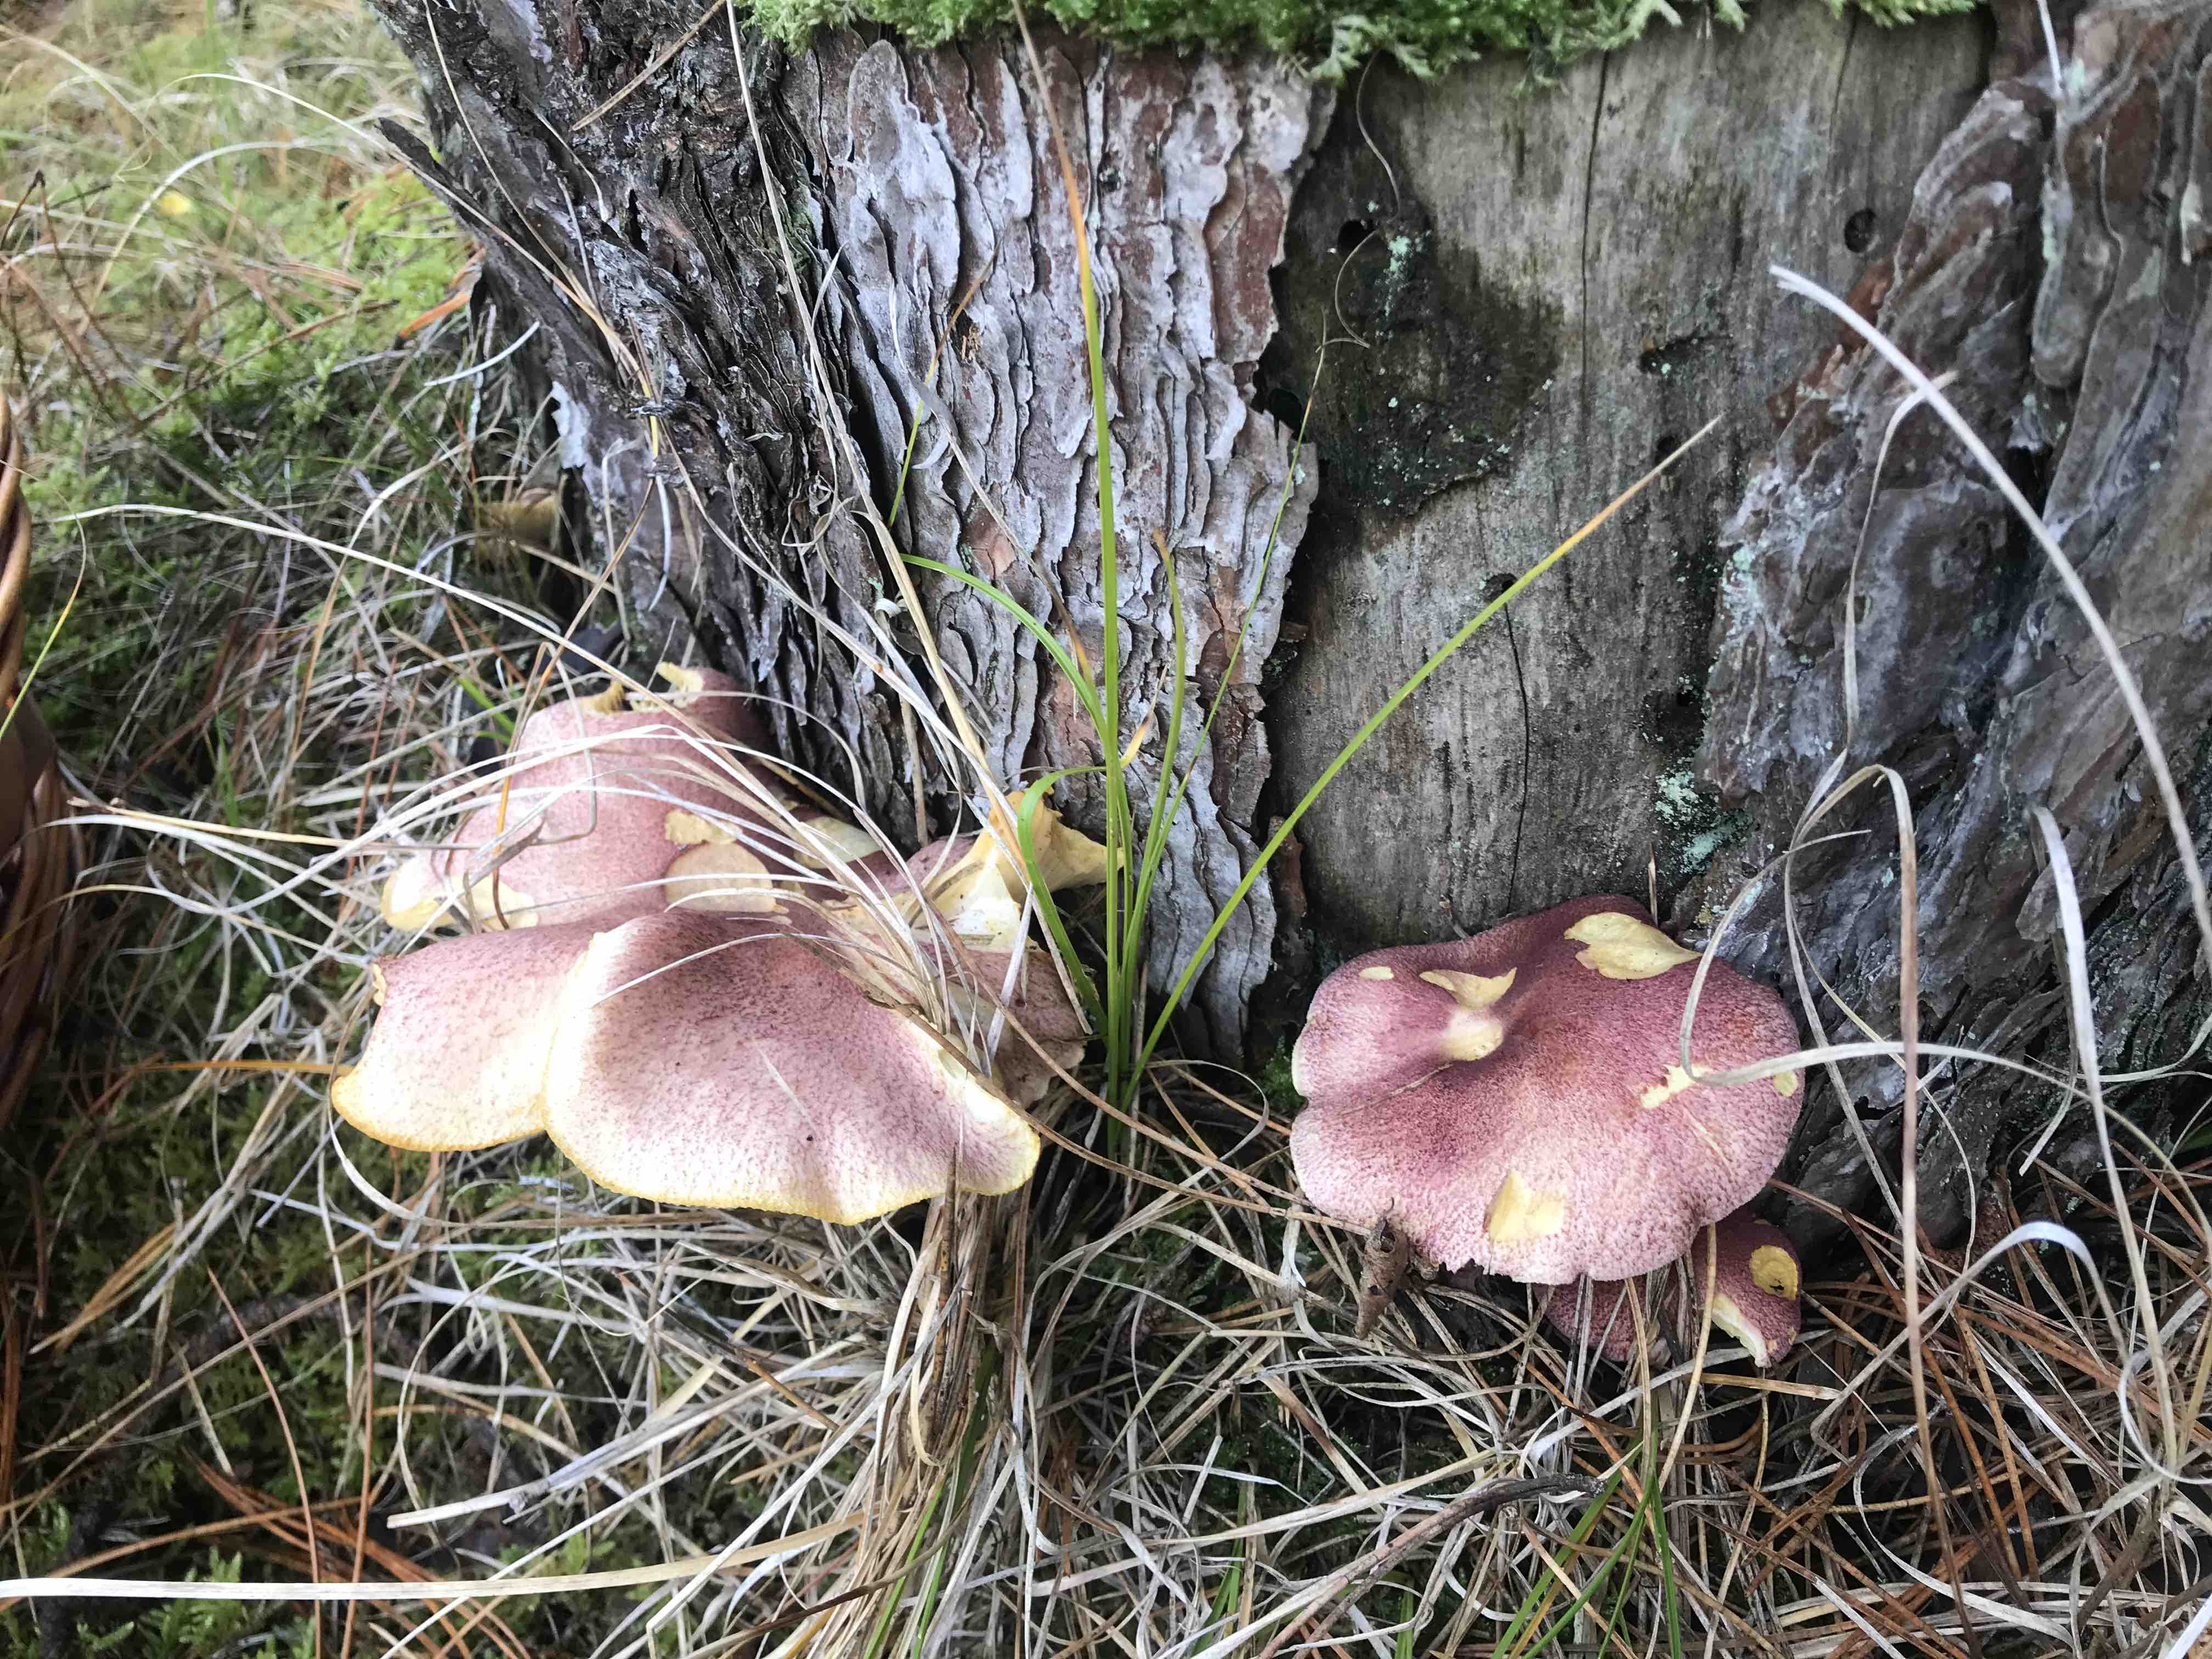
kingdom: Fungi
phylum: Basidiomycota
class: Agaricomycetes
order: Agaricales
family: Tricholomataceae
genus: Tricholomopsis
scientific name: Tricholomopsis rutilans
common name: purpur-væbnerhat
